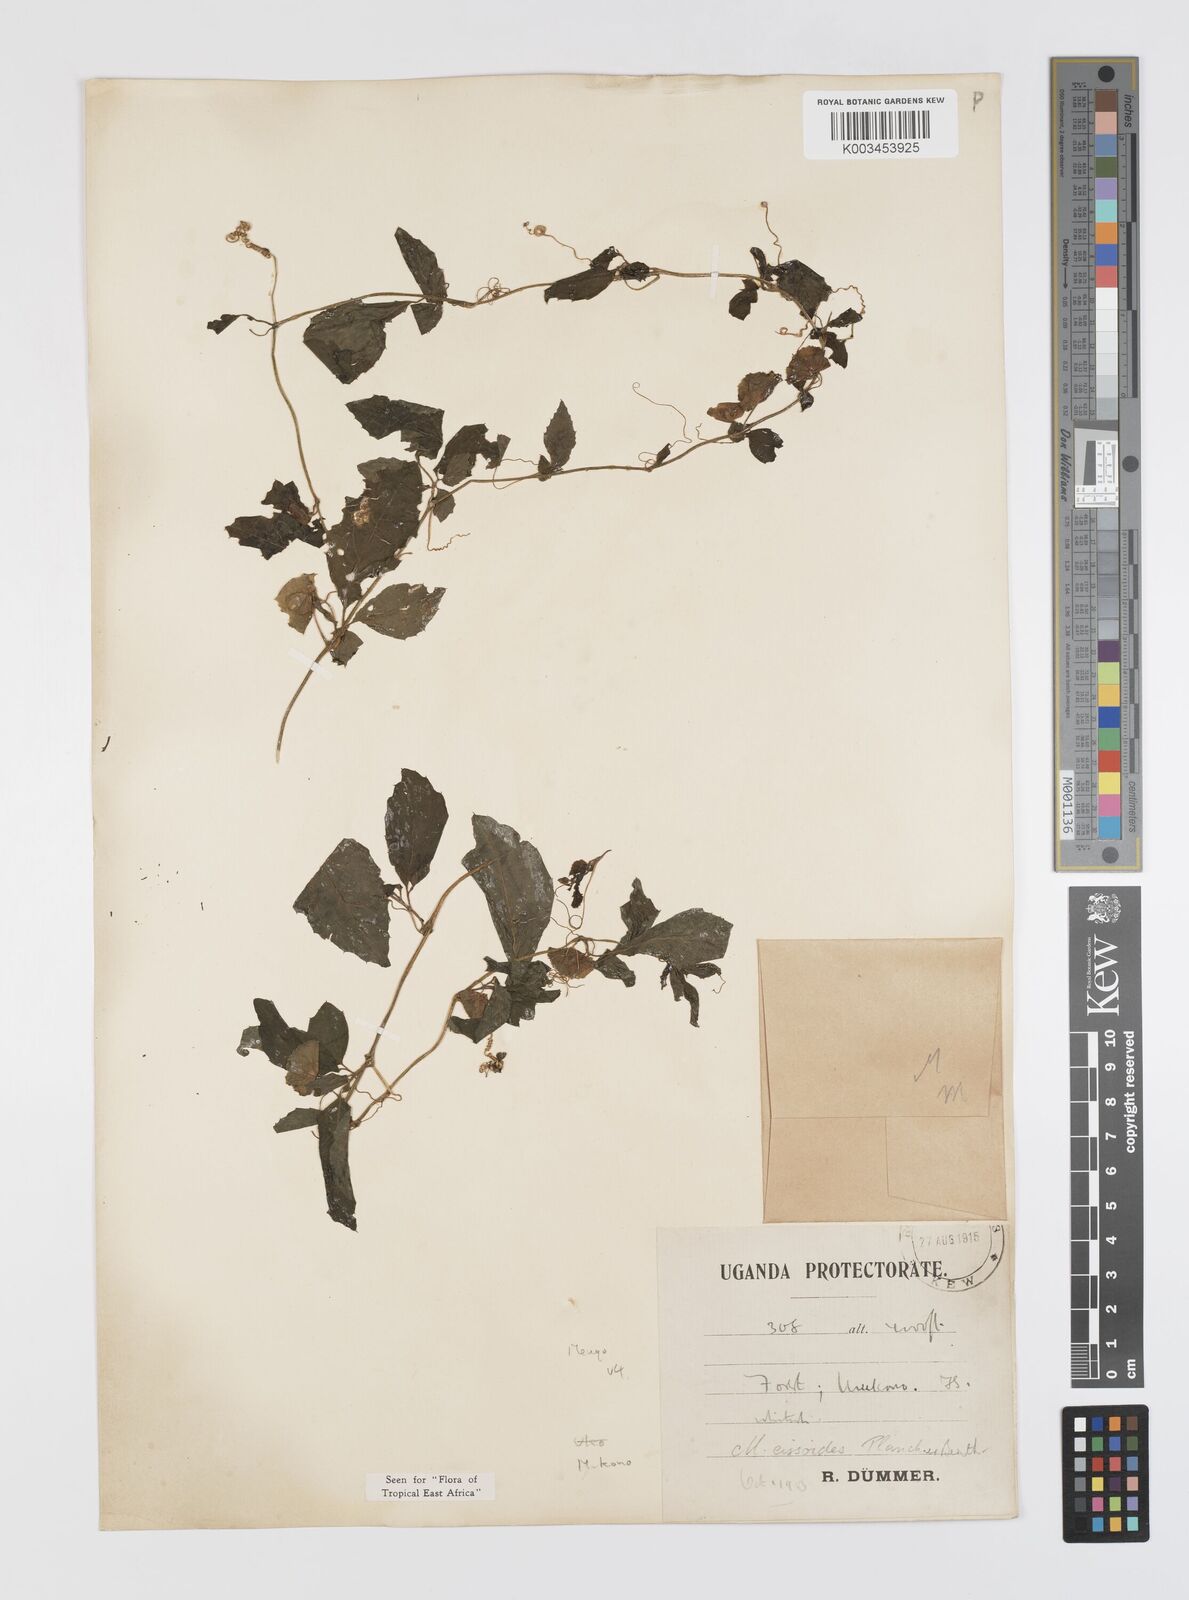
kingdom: Plantae
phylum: Tracheophyta
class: Magnoliopsida
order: Cucurbitales
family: Cucurbitaceae
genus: Momordica
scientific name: Momordica cissoides
